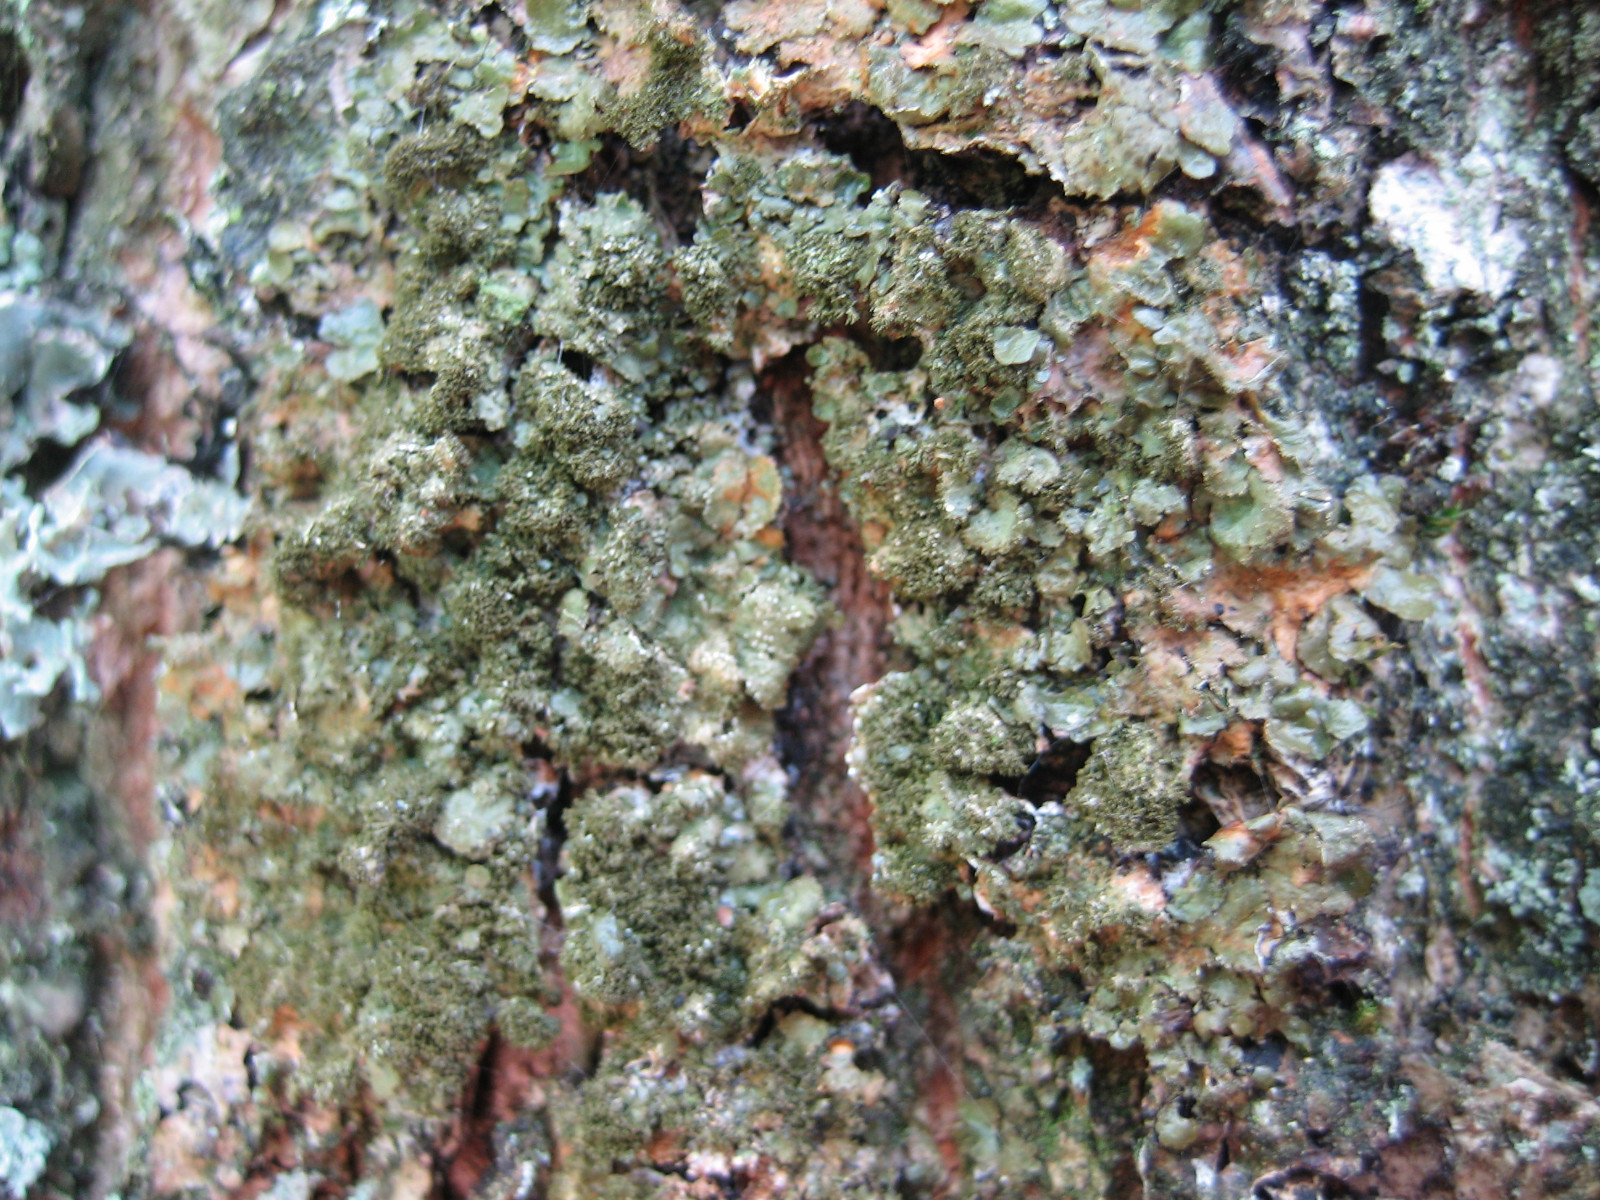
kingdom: Fungi
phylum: Ascomycota
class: Lecanoromycetes
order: Lecanorales
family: Parmeliaceae
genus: Melanelixia
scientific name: Melanelixia glabratula
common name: glinsende skållav
